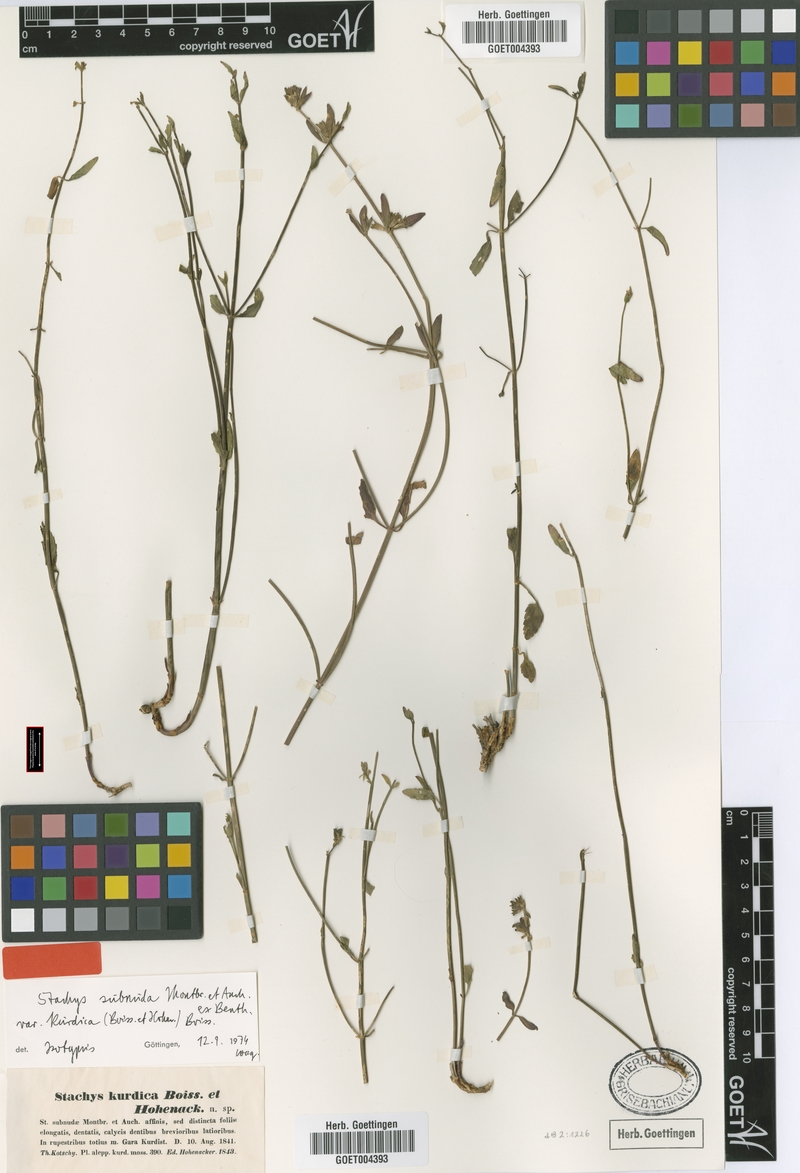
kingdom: Plantae
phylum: Tracheophyta
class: Magnoliopsida
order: Lamiales
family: Lamiaceae
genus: Stachys
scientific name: Stachys subnuda
